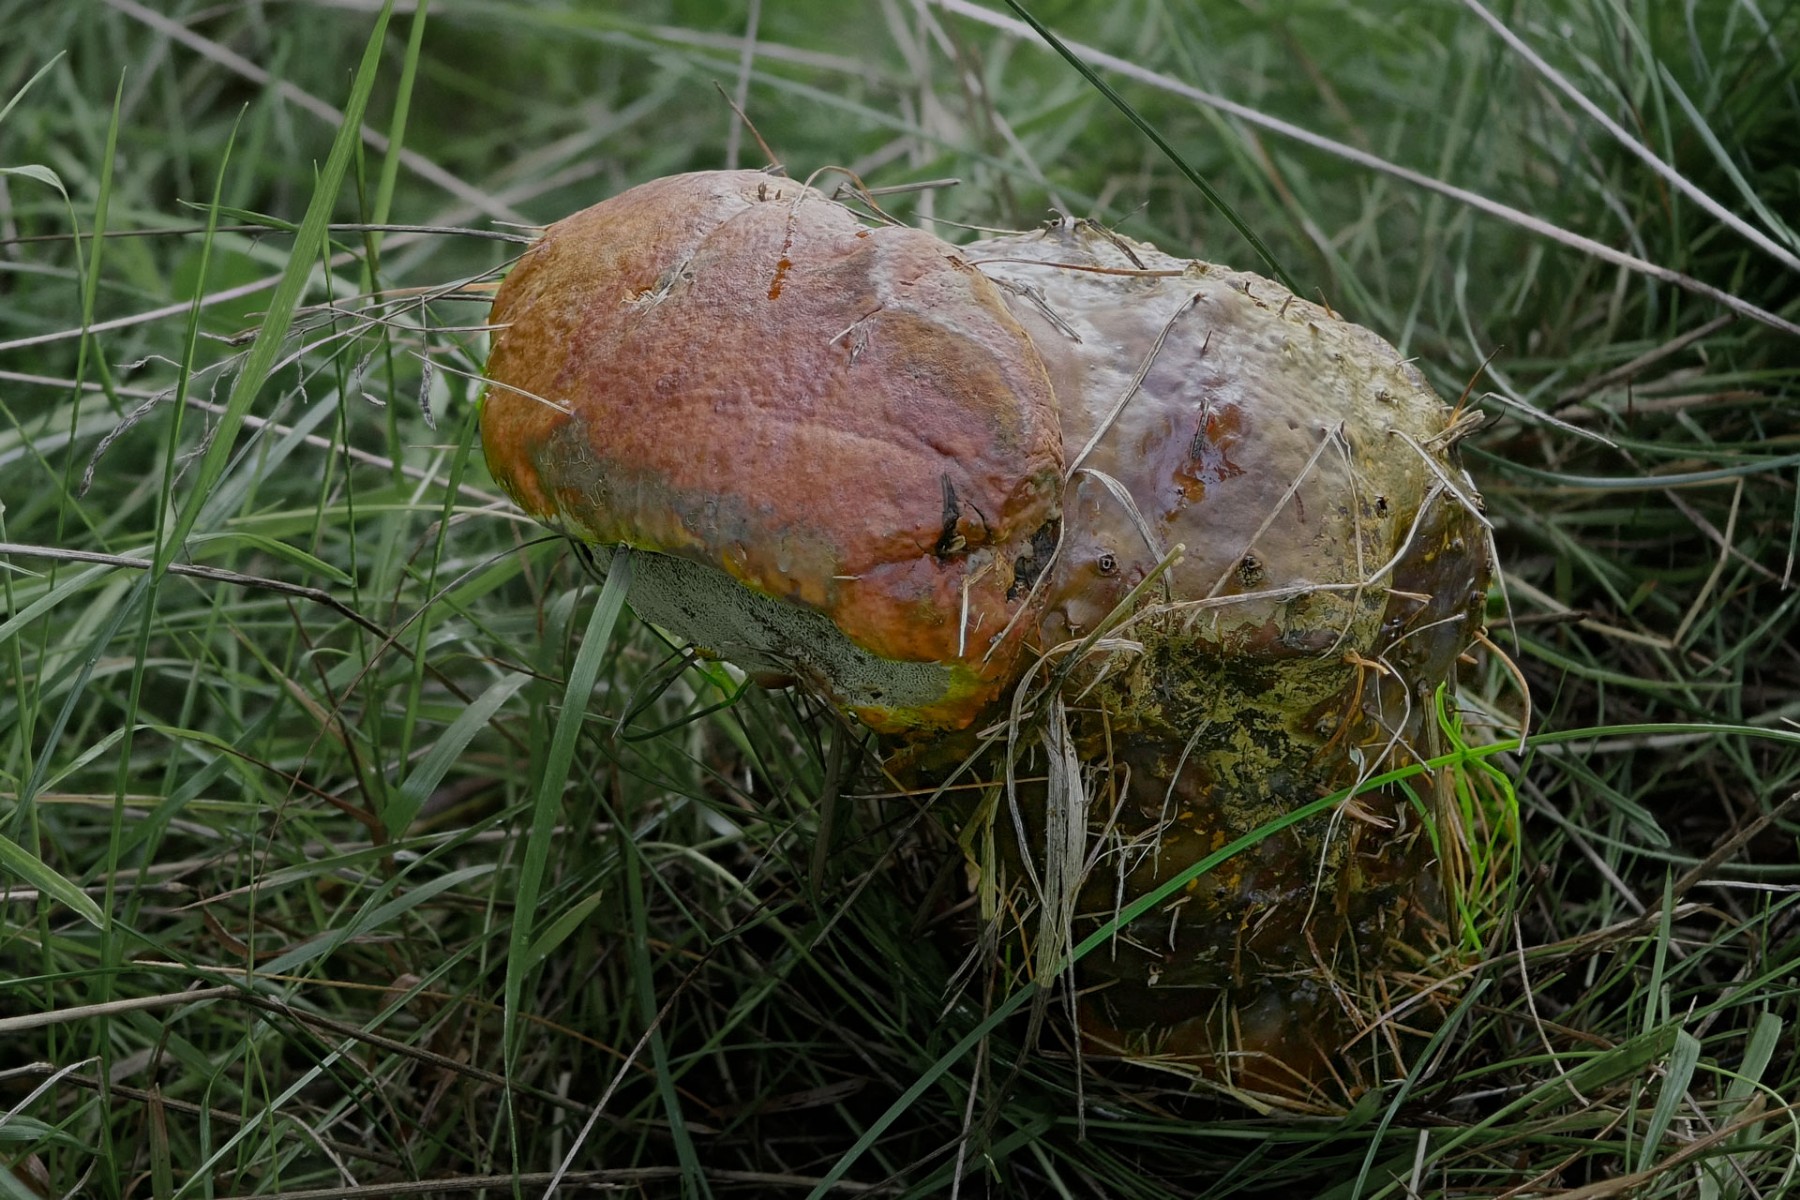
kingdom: Fungi
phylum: Basidiomycota
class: Agaricomycetes
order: Polyporales
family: Polyporaceae
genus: Ganoderma
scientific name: Ganoderma lucidum
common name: skinnende lakporesvamp
